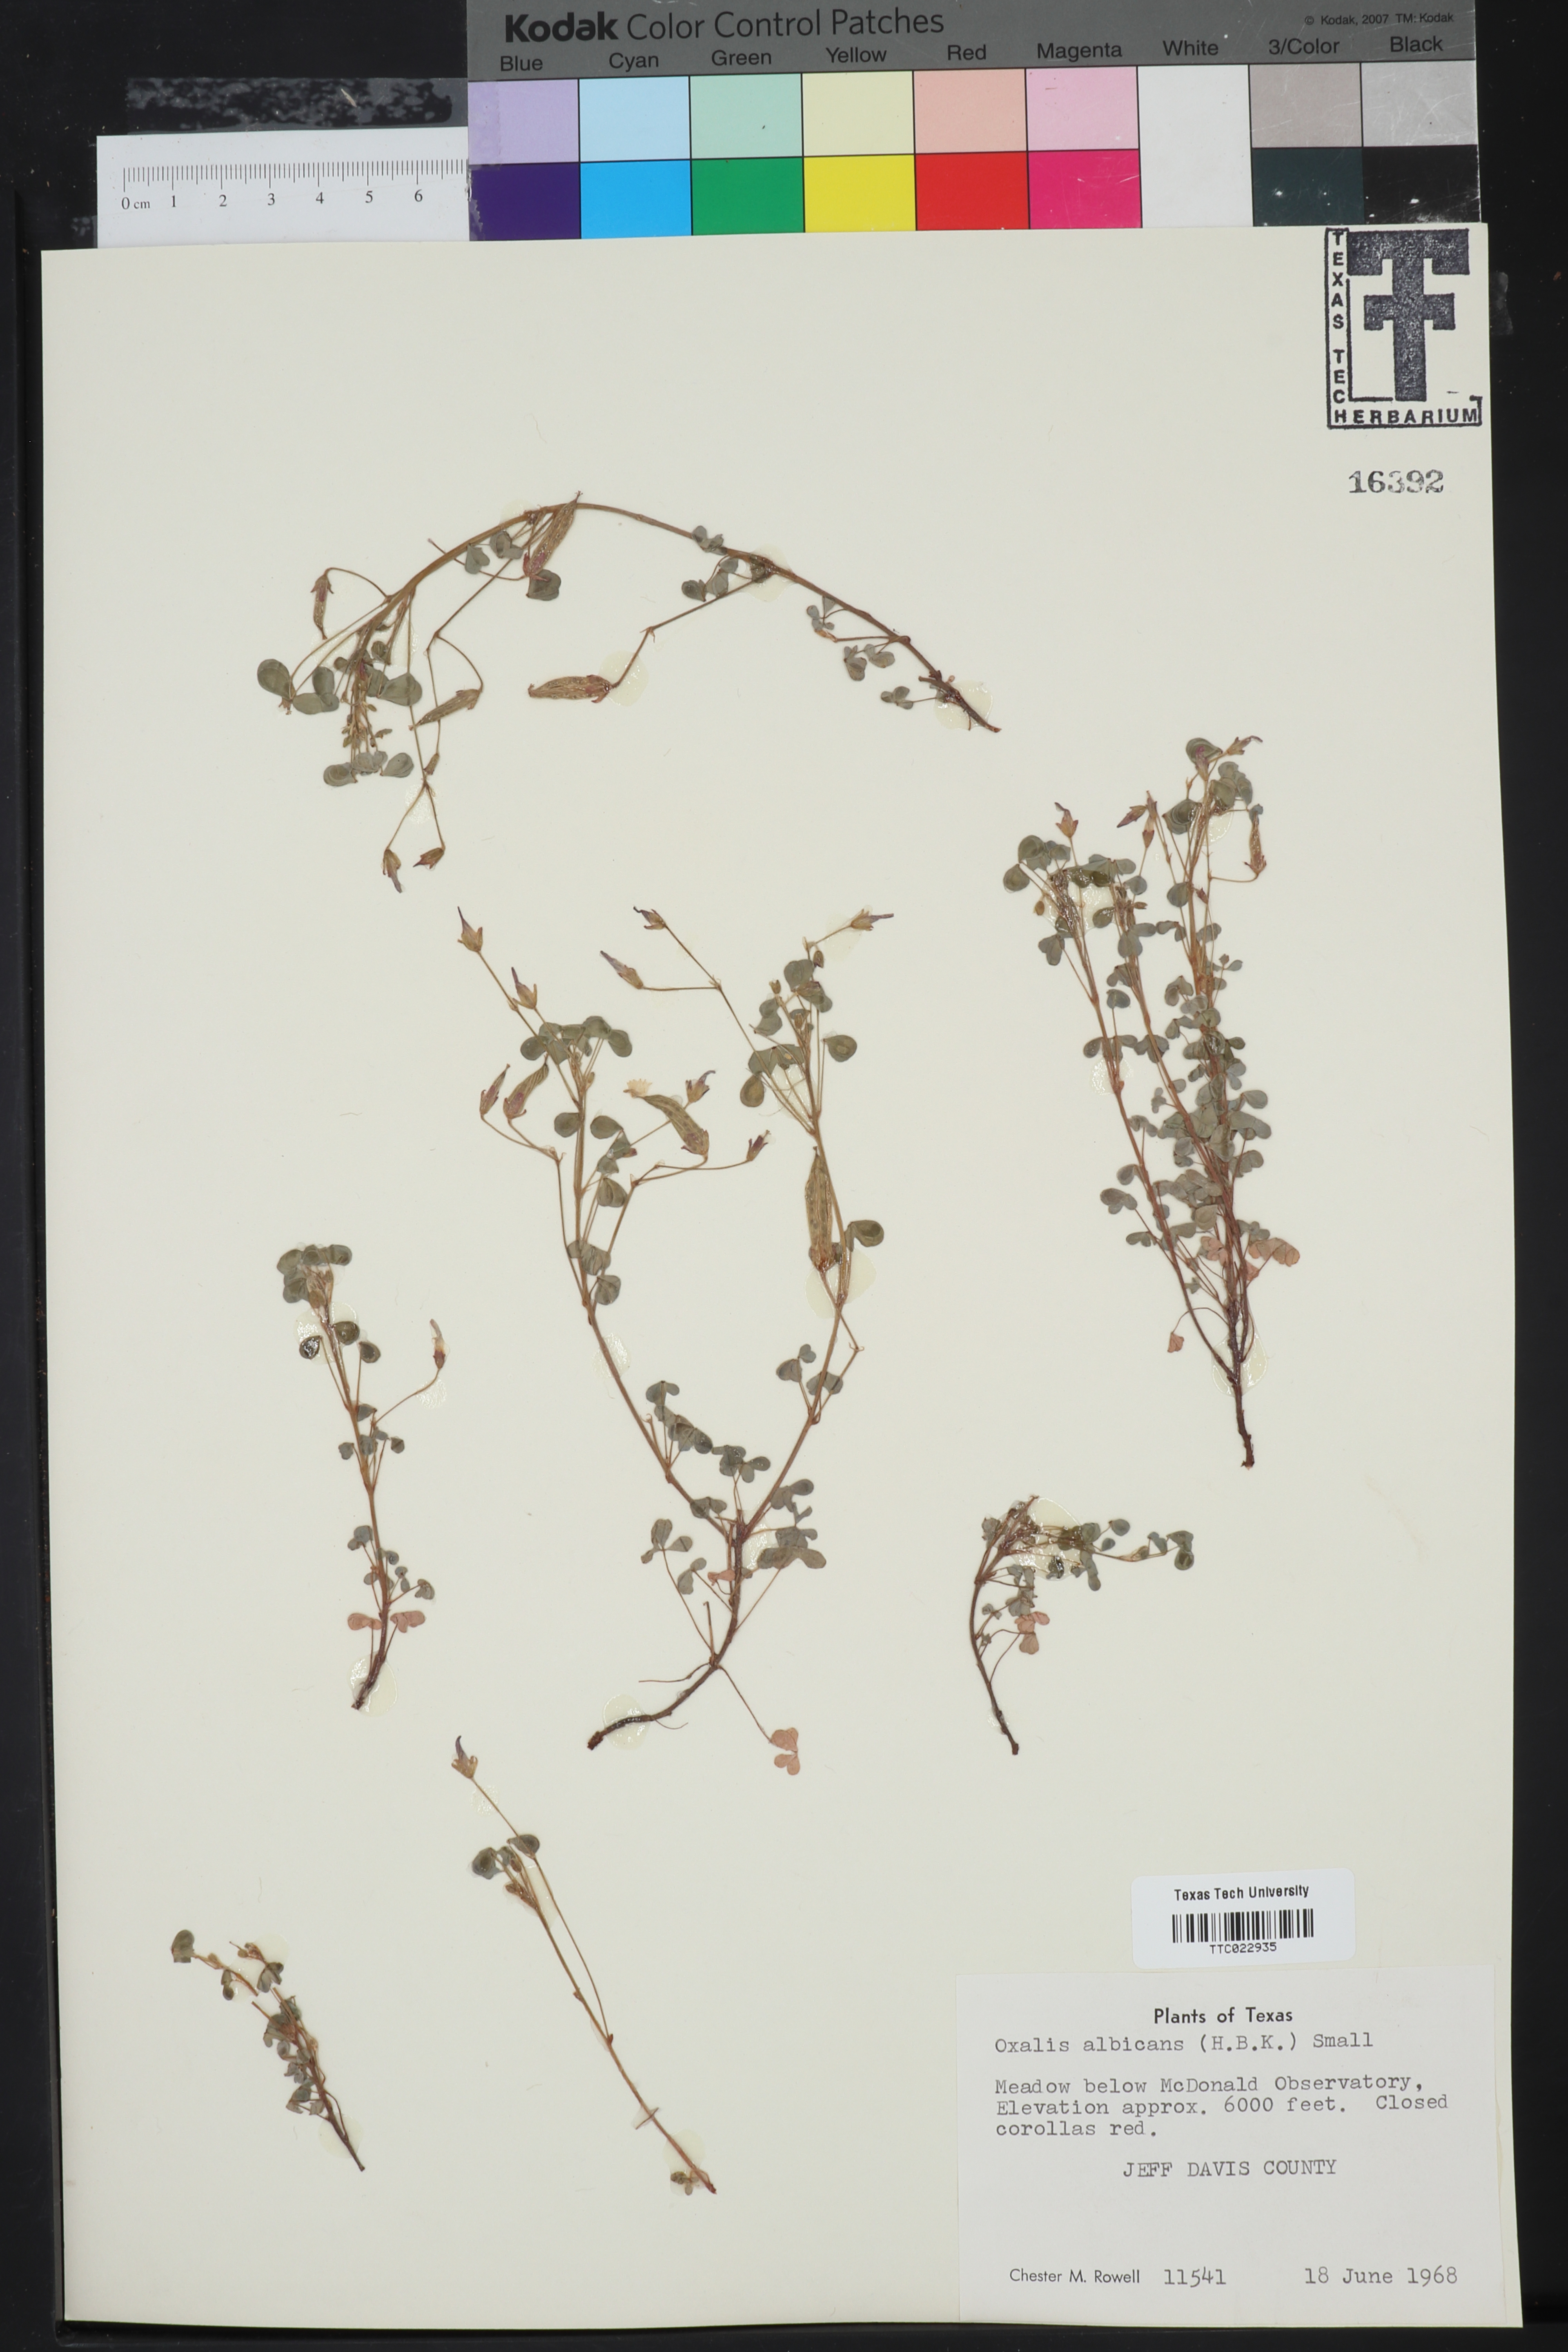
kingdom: Plantae
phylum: Tracheophyta
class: Magnoliopsida
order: Oxalidales
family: Oxalidaceae
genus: Oxalis
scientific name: Oxalis albicans
